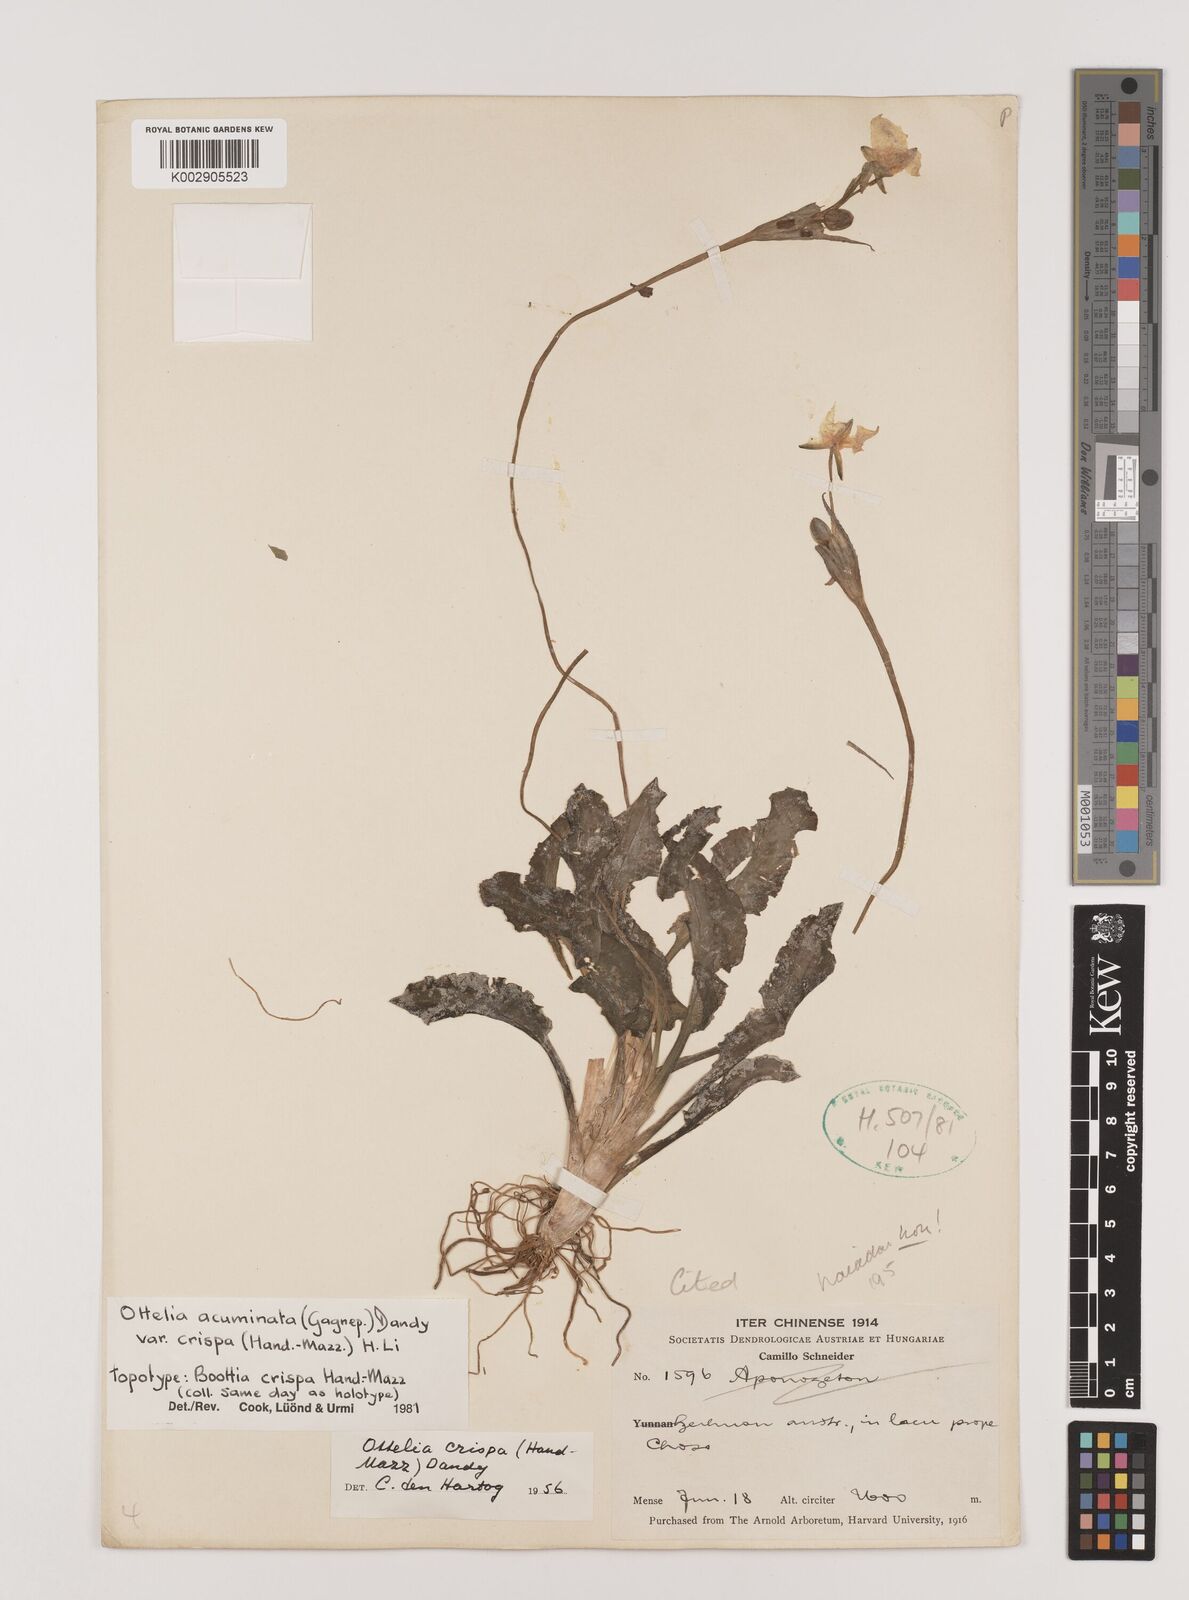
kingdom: Plantae
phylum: Tracheophyta
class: Liliopsida
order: Alismatales
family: Hydrocharitaceae
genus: Ottelia
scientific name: Ottelia acuminata
